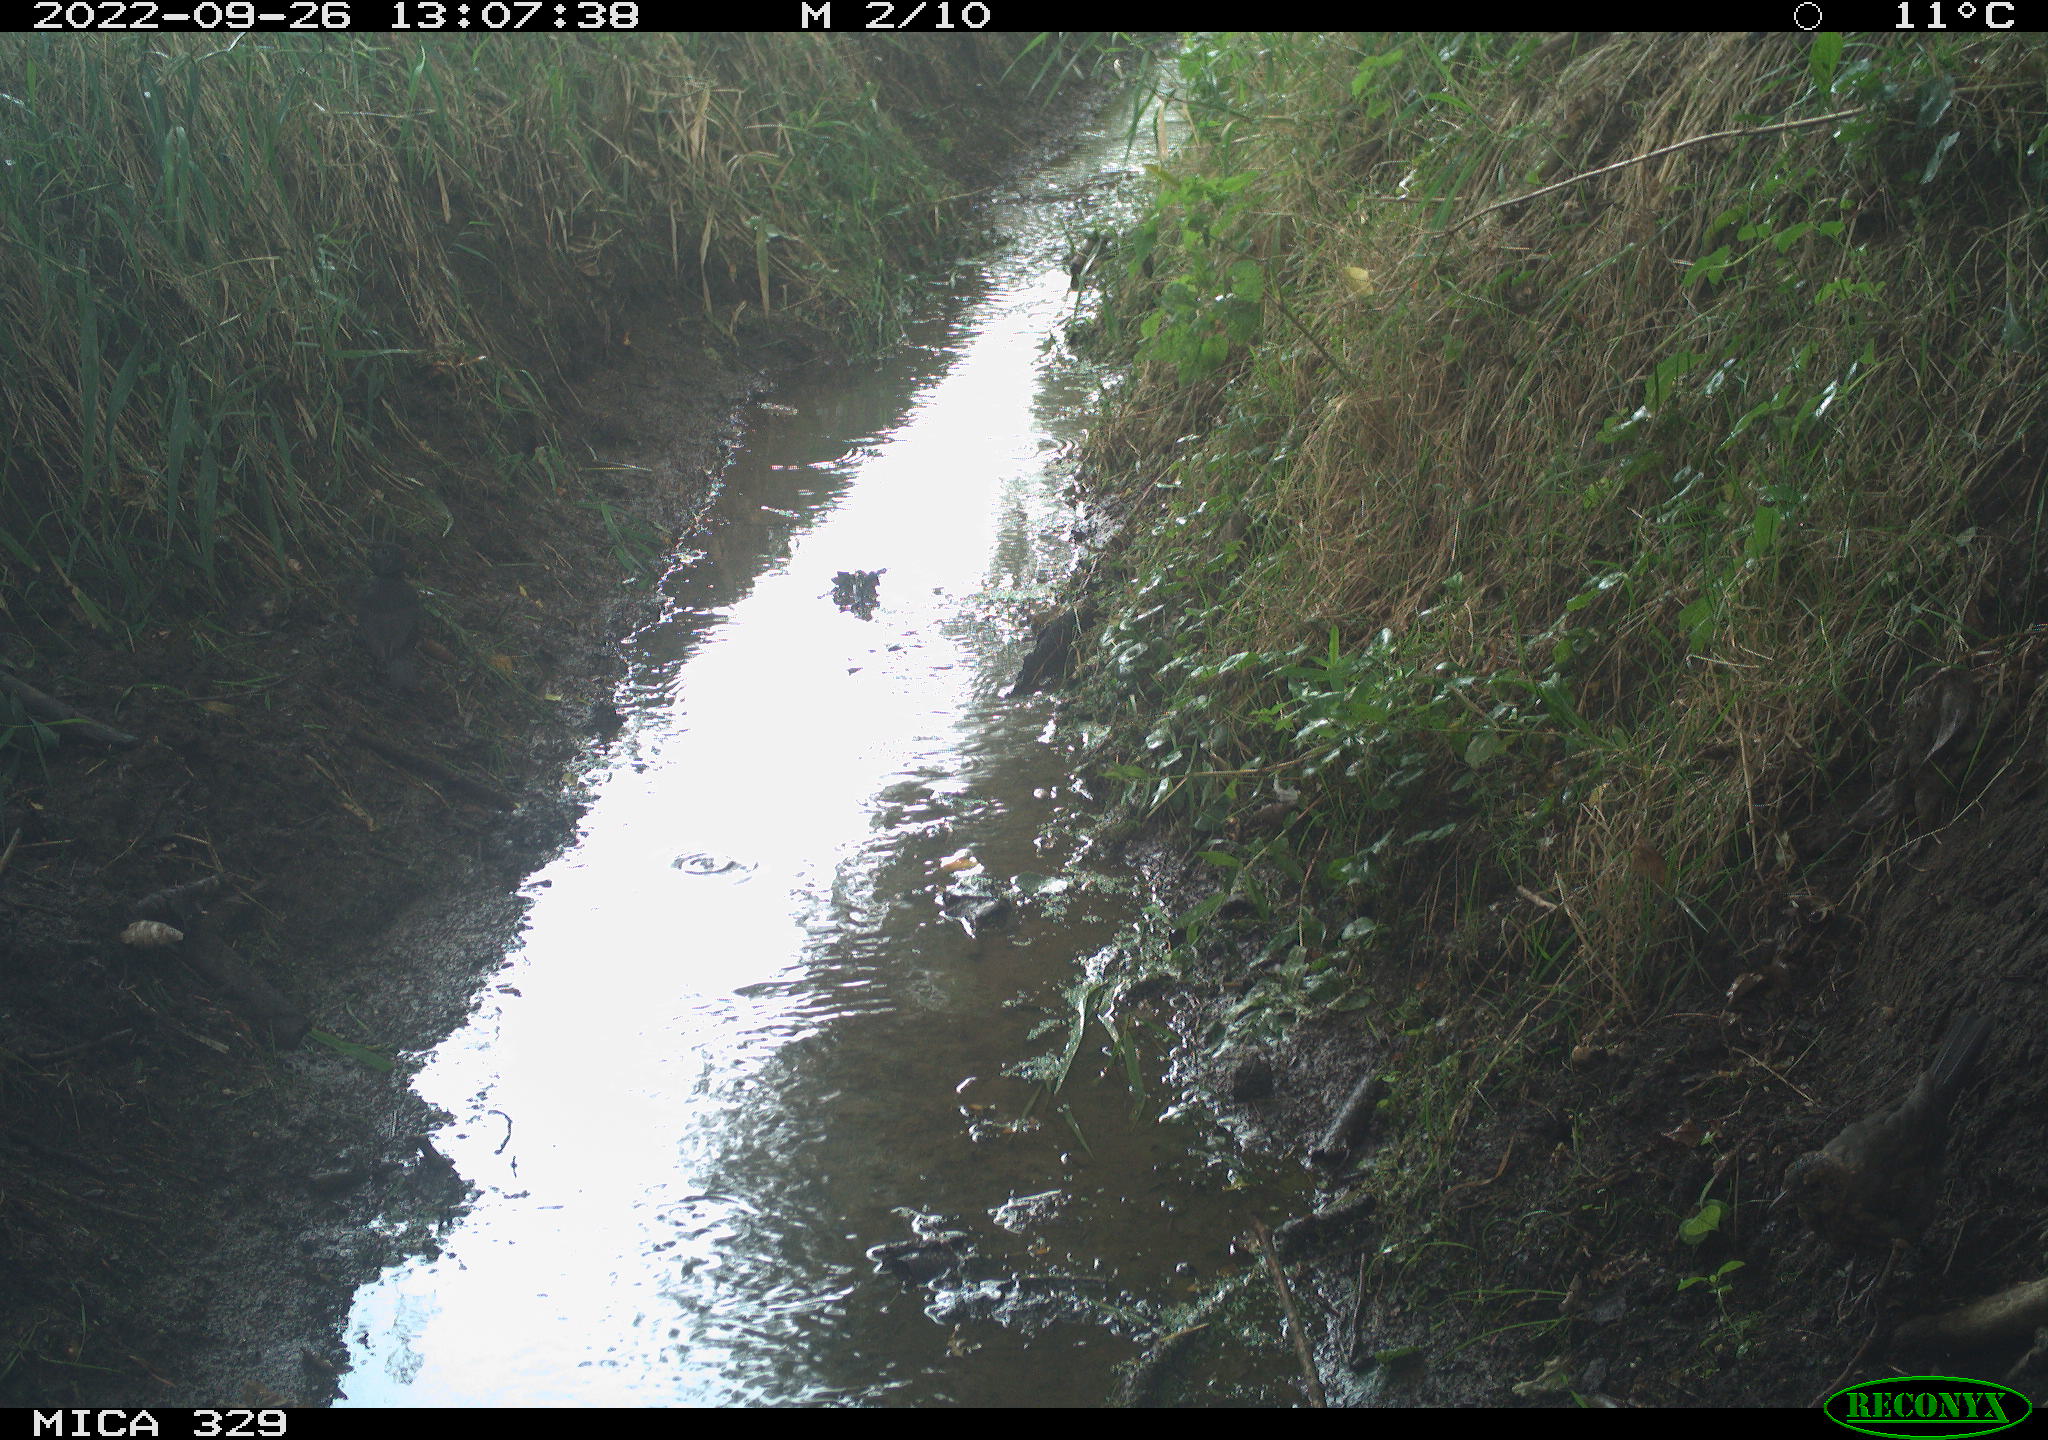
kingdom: Animalia
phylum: Chordata
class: Aves
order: Passeriformes
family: Turdidae
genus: Turdus
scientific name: Turdus
